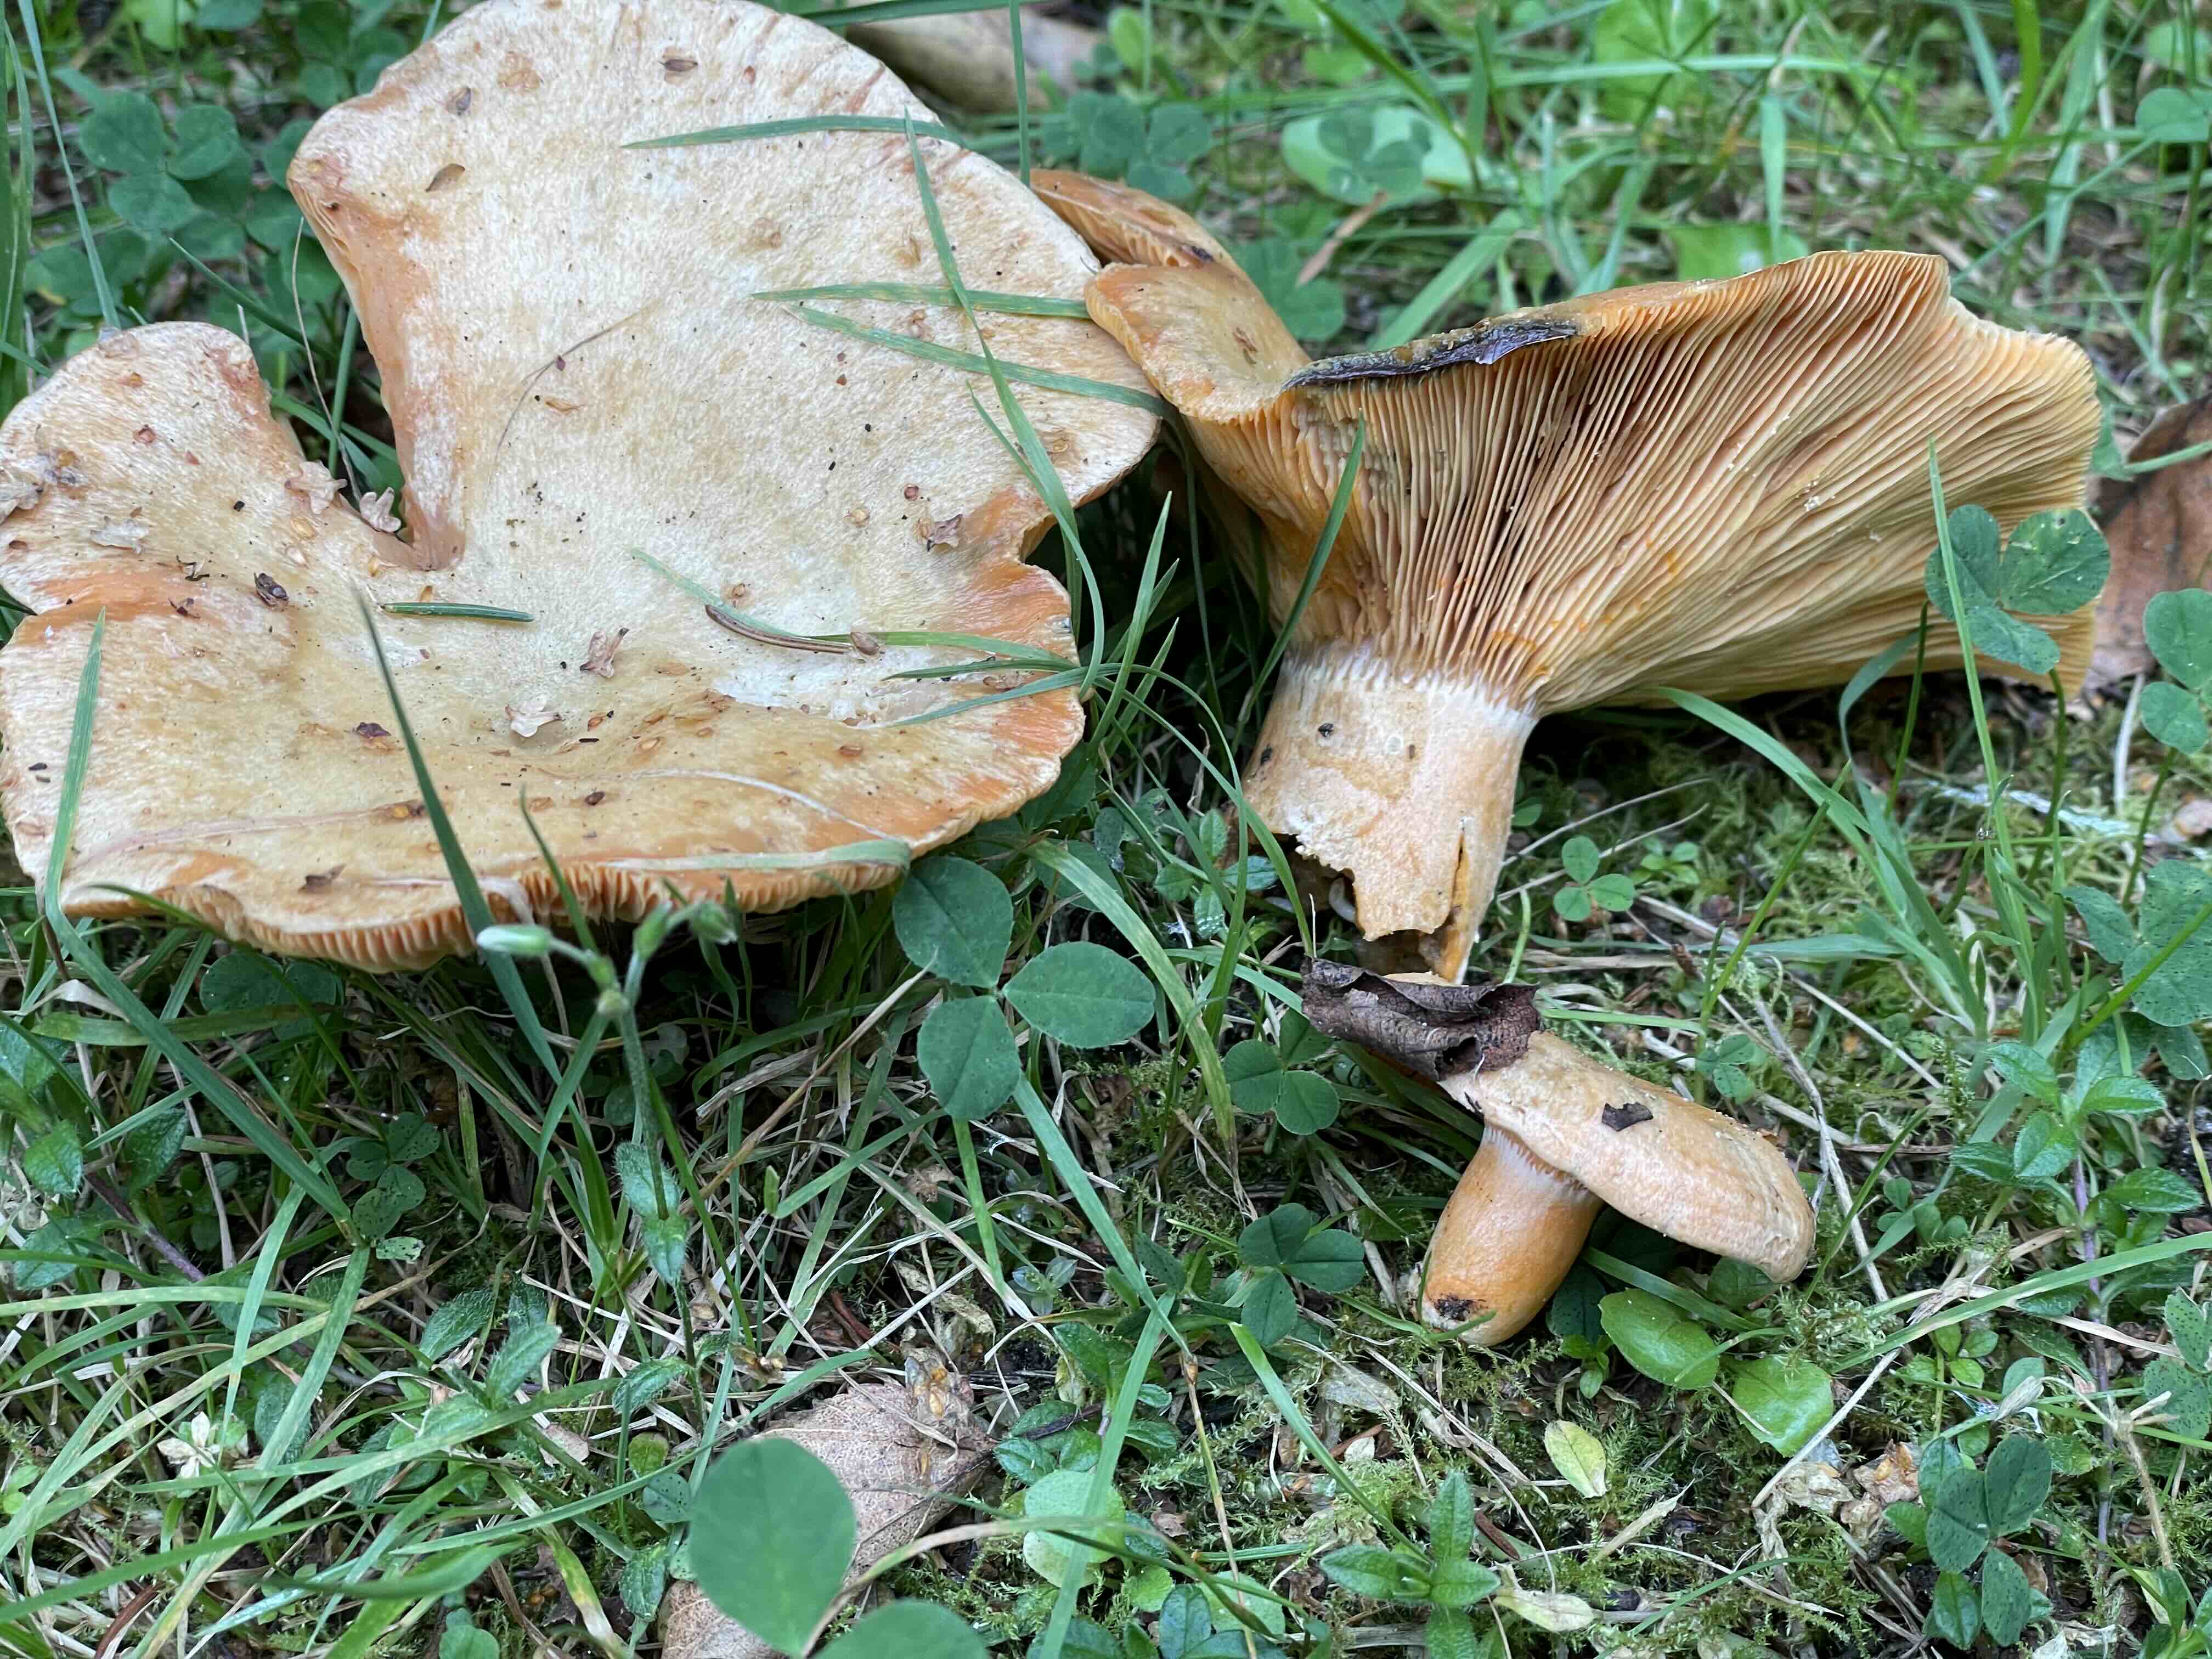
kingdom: Fungi
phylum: Basidiomycota
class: Agaricomycetes
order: Russulales
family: Russulaceae
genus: Lactarius
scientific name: Lactarius deterrimus
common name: gran-mælkehat
